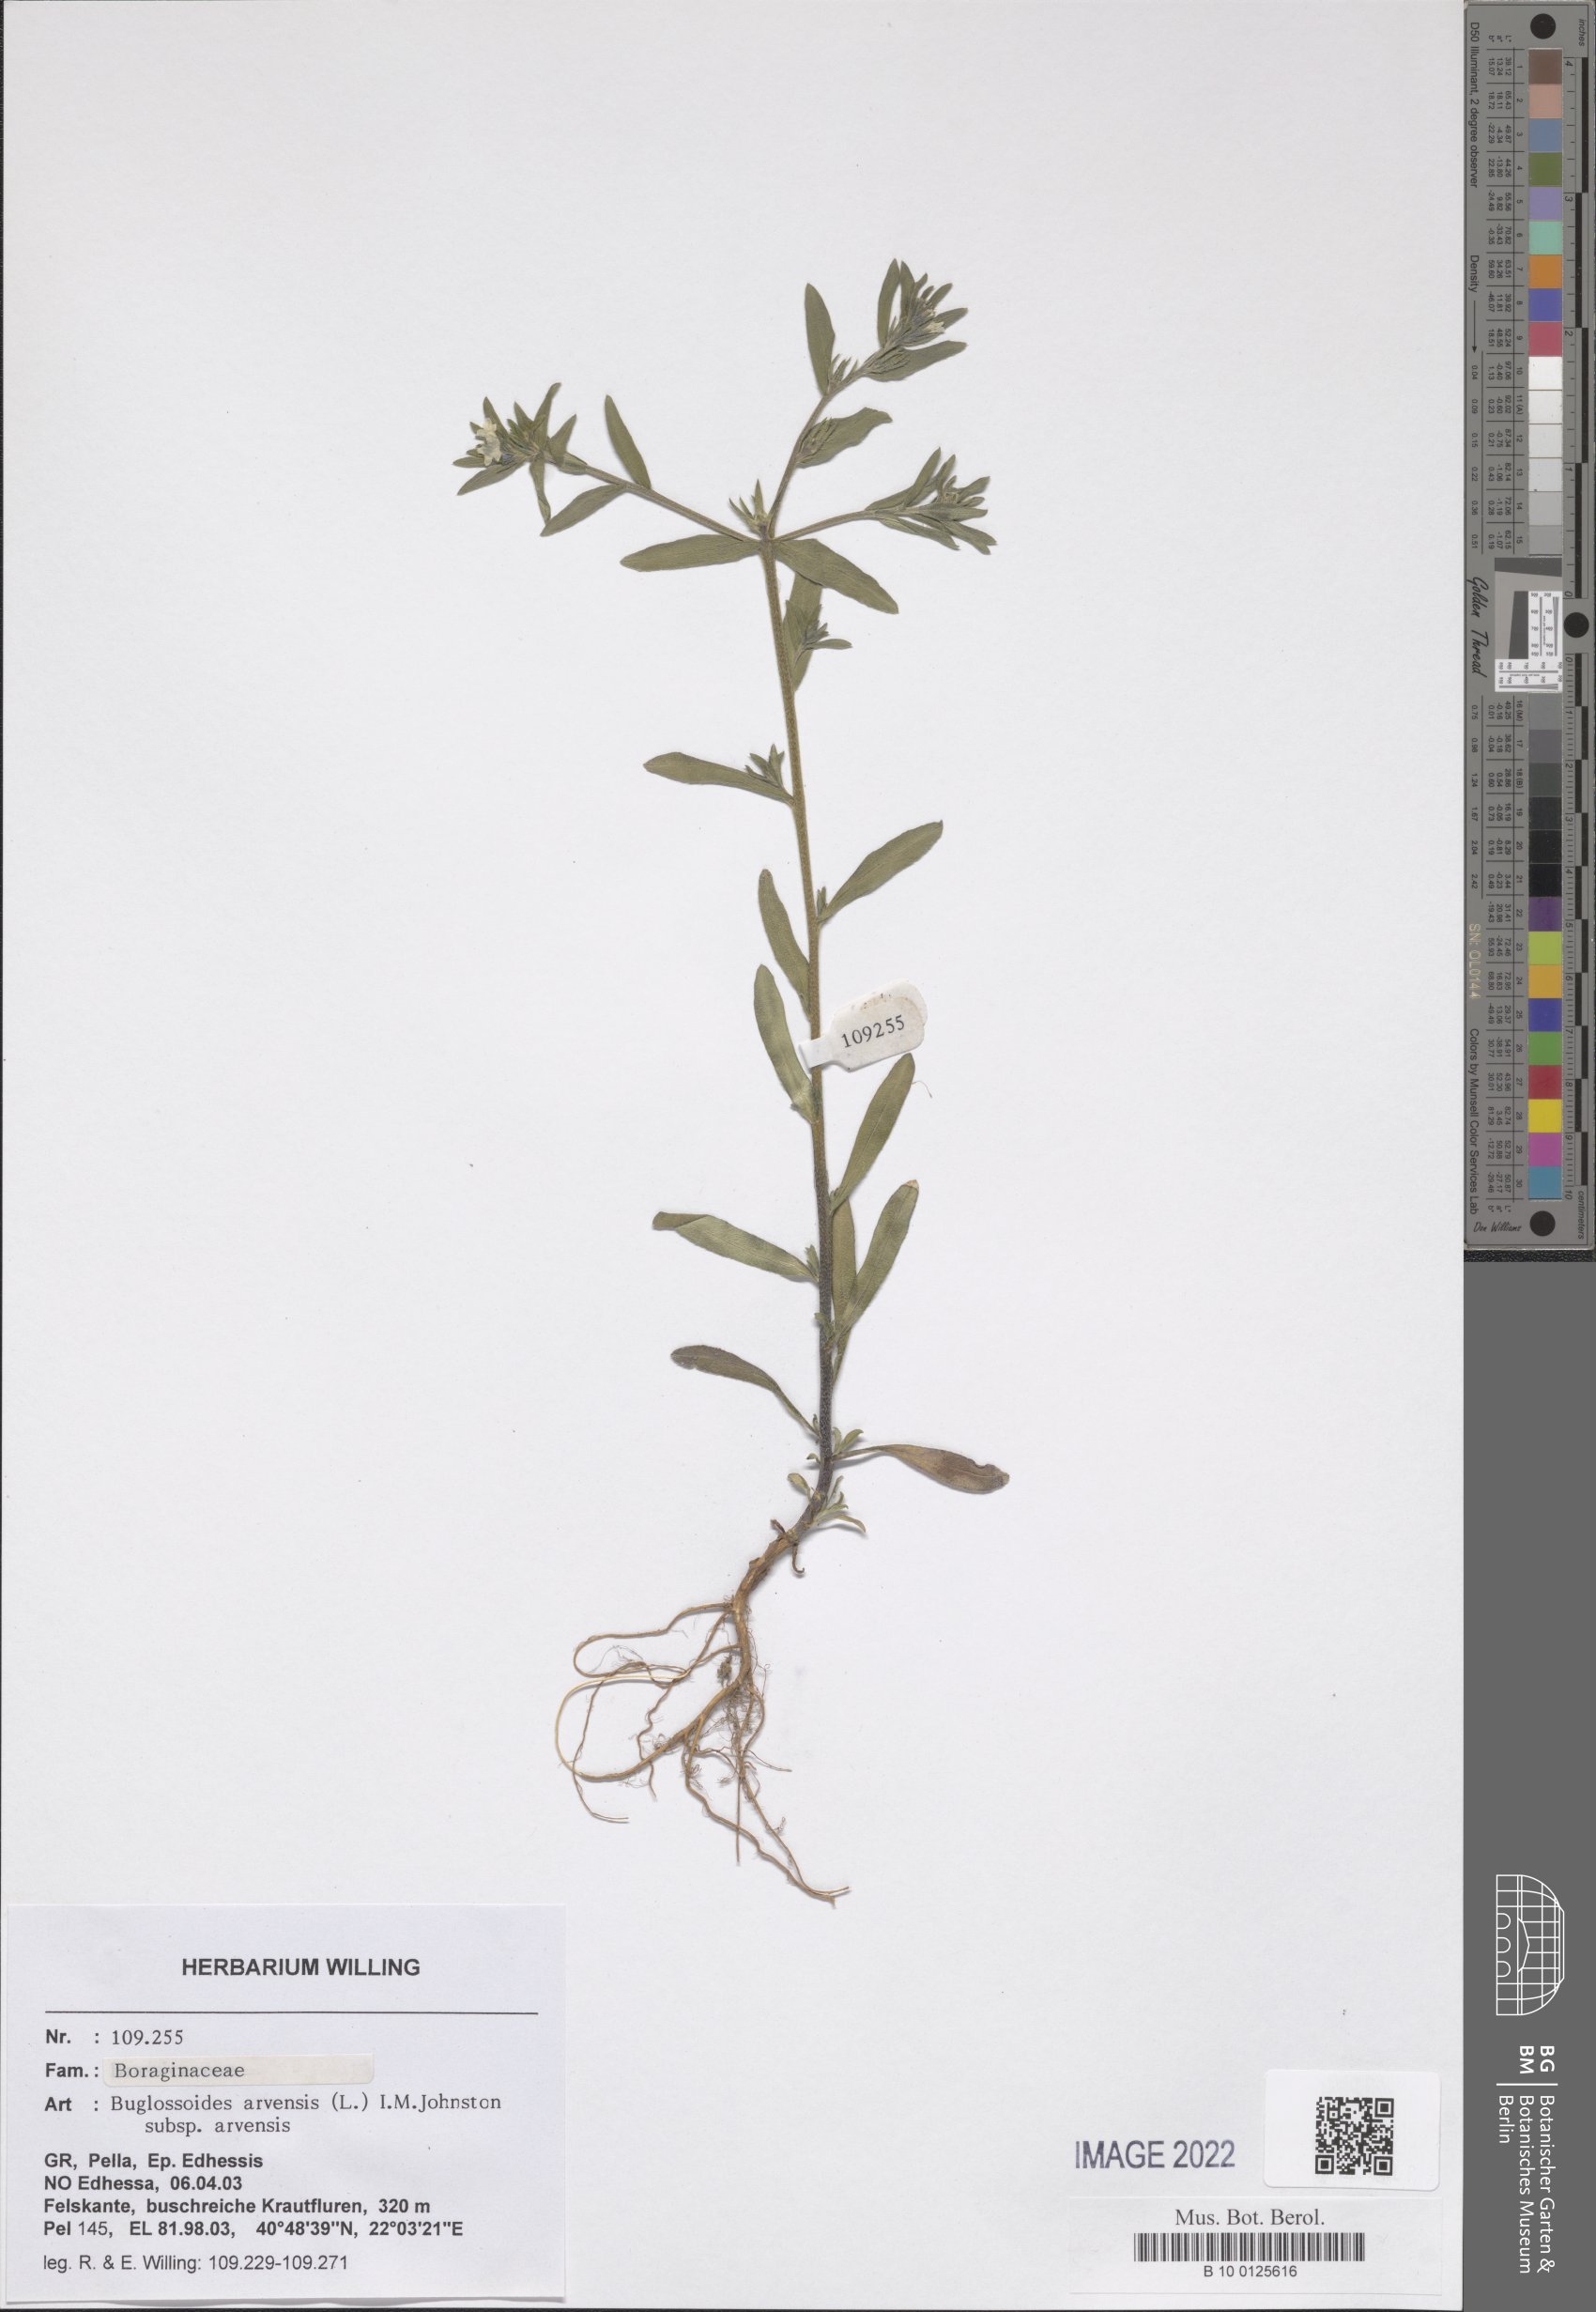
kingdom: Plantae
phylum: Tracheophyta
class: Magnoliopsida
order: Boraginales
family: Boraginaceae
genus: Buglossoides
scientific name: Buglossoides arvensis
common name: Corn gromwell
